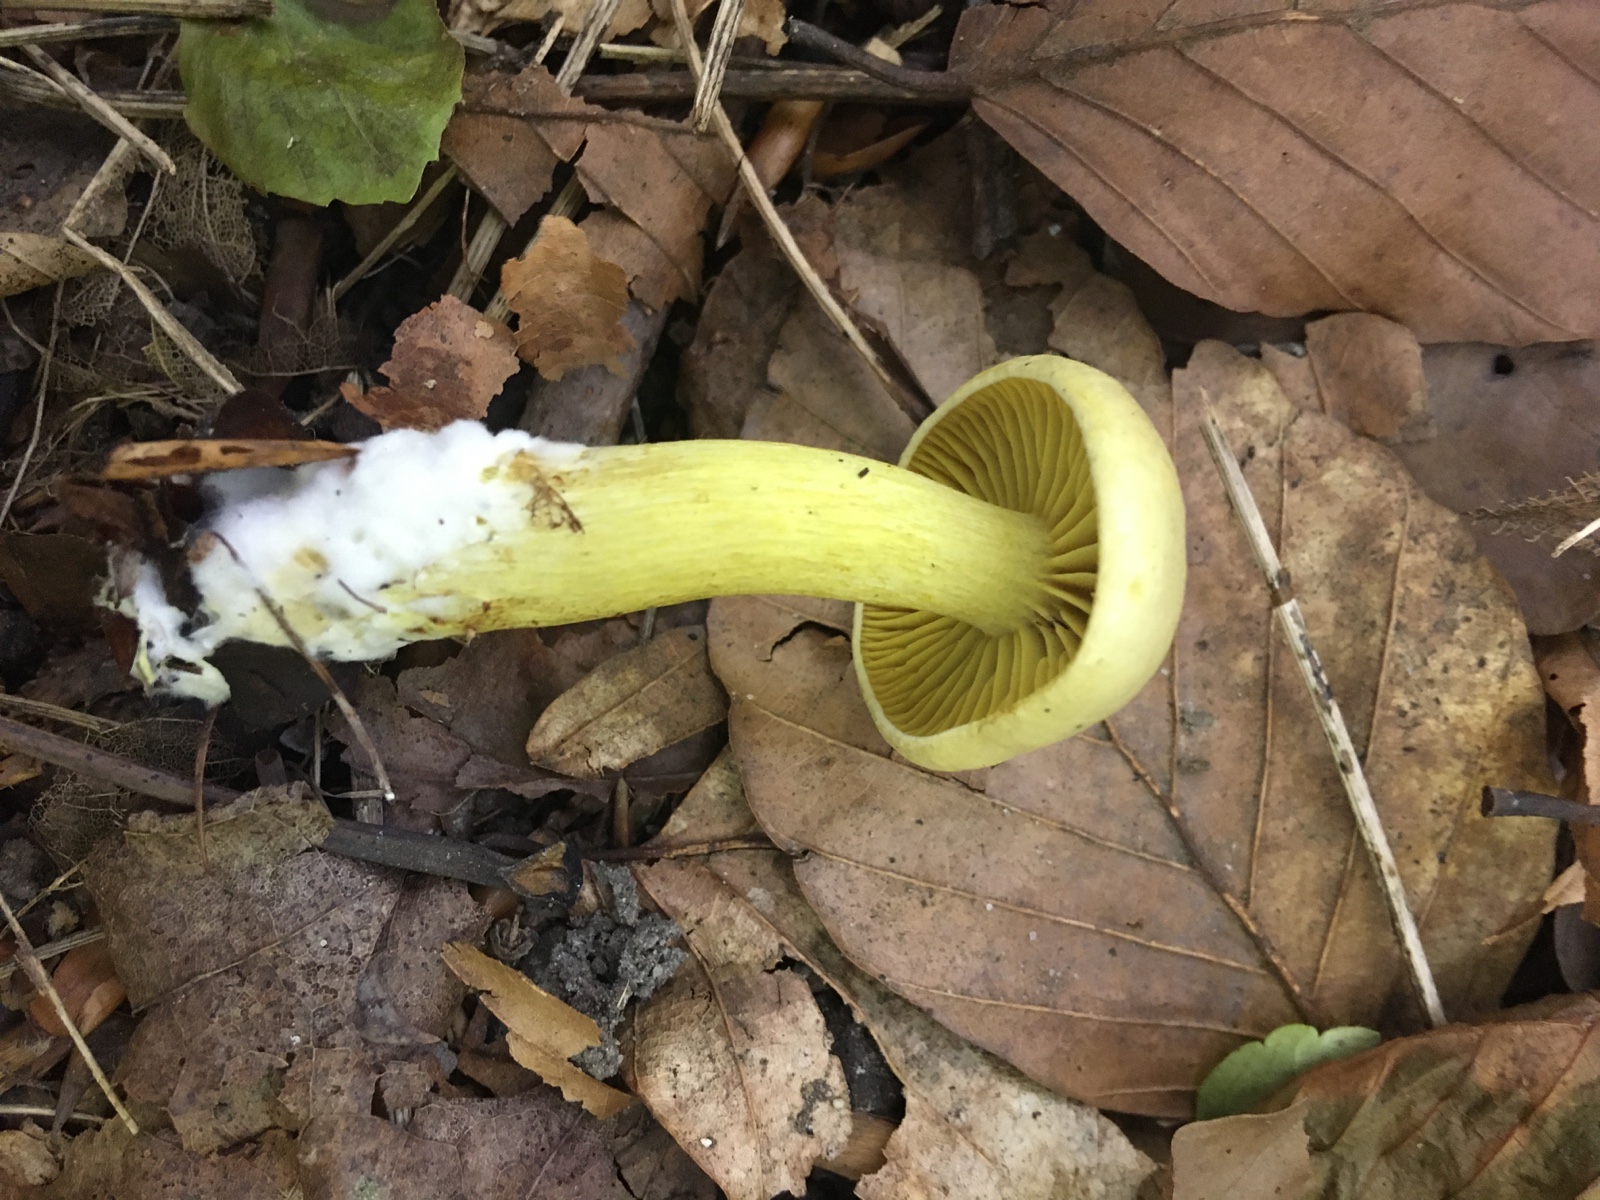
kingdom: Fungi
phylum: Basidiomycota
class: Agaricomycetes
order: Agaricales
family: Tricholomataceae
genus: Tricholoma
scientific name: Tricholoma sulphureum
